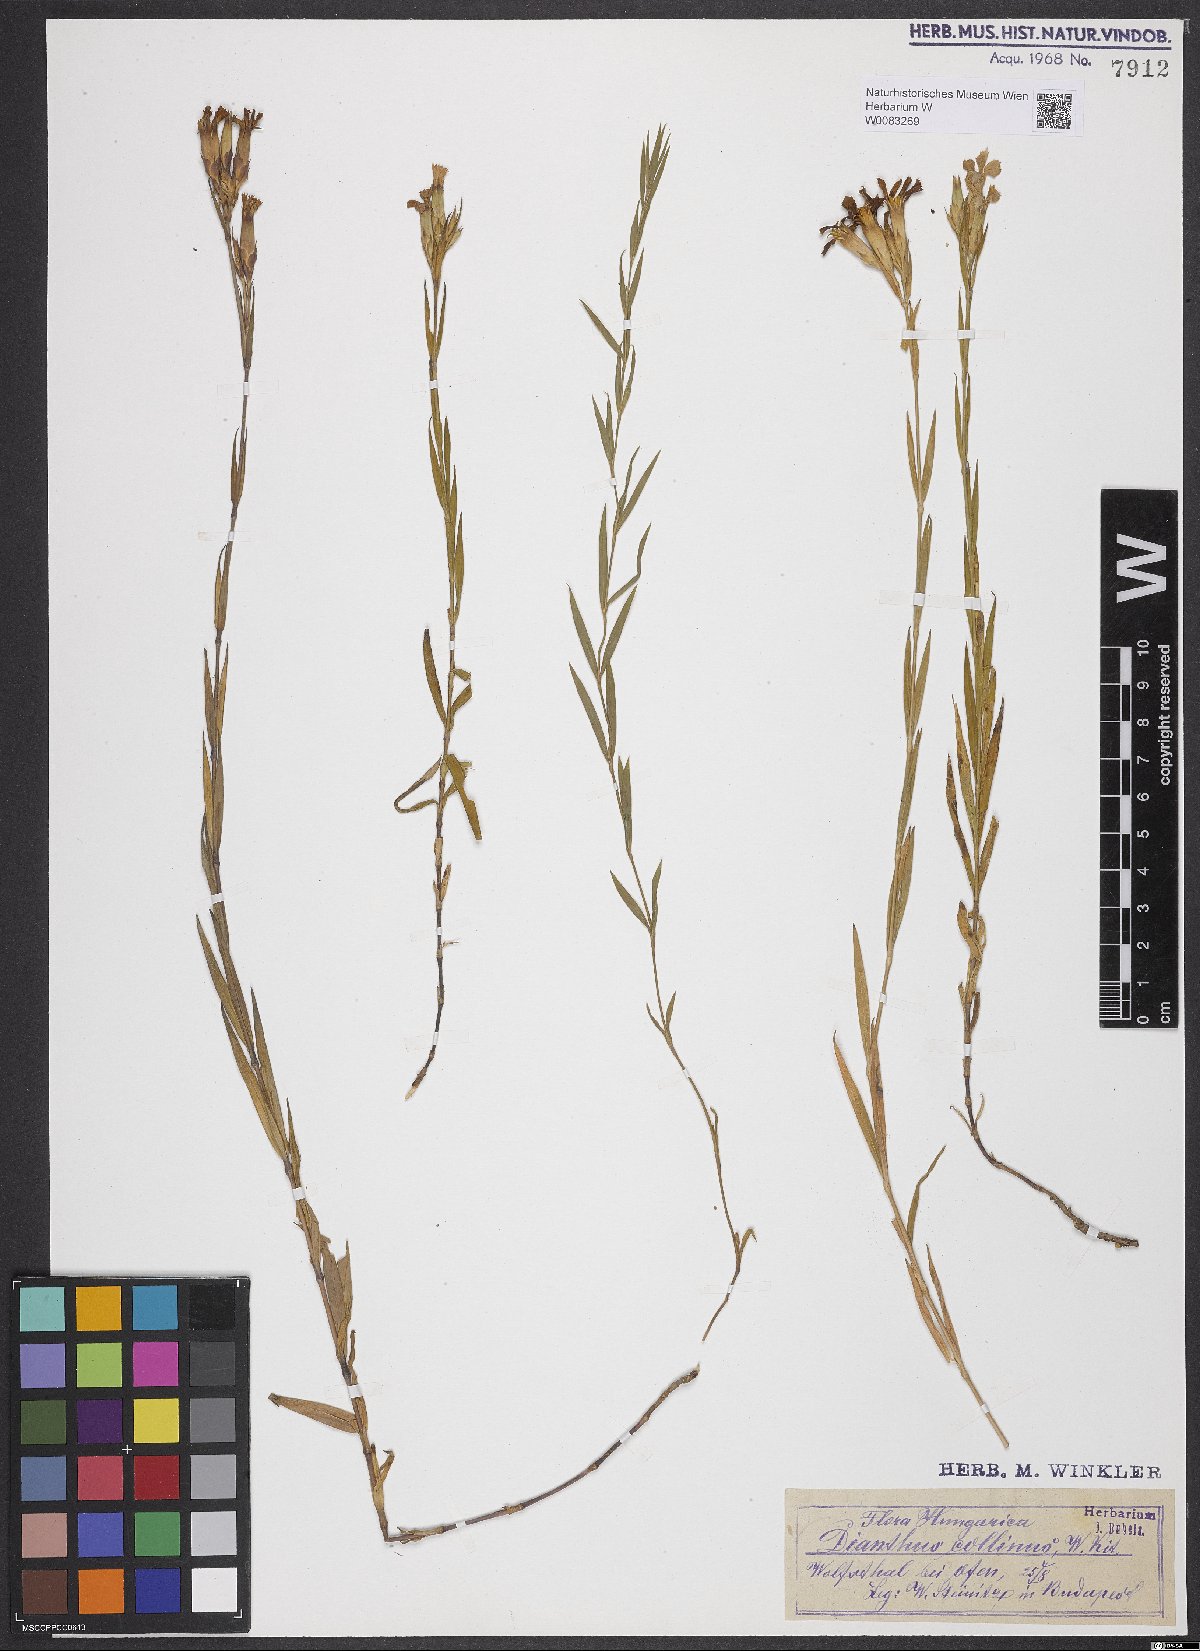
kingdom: Plantae
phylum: Tracheophyta
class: Magnoliopsida
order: Caryophyllales
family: Caryophyllaceae
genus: Dianthus
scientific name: Dianthus collinus
